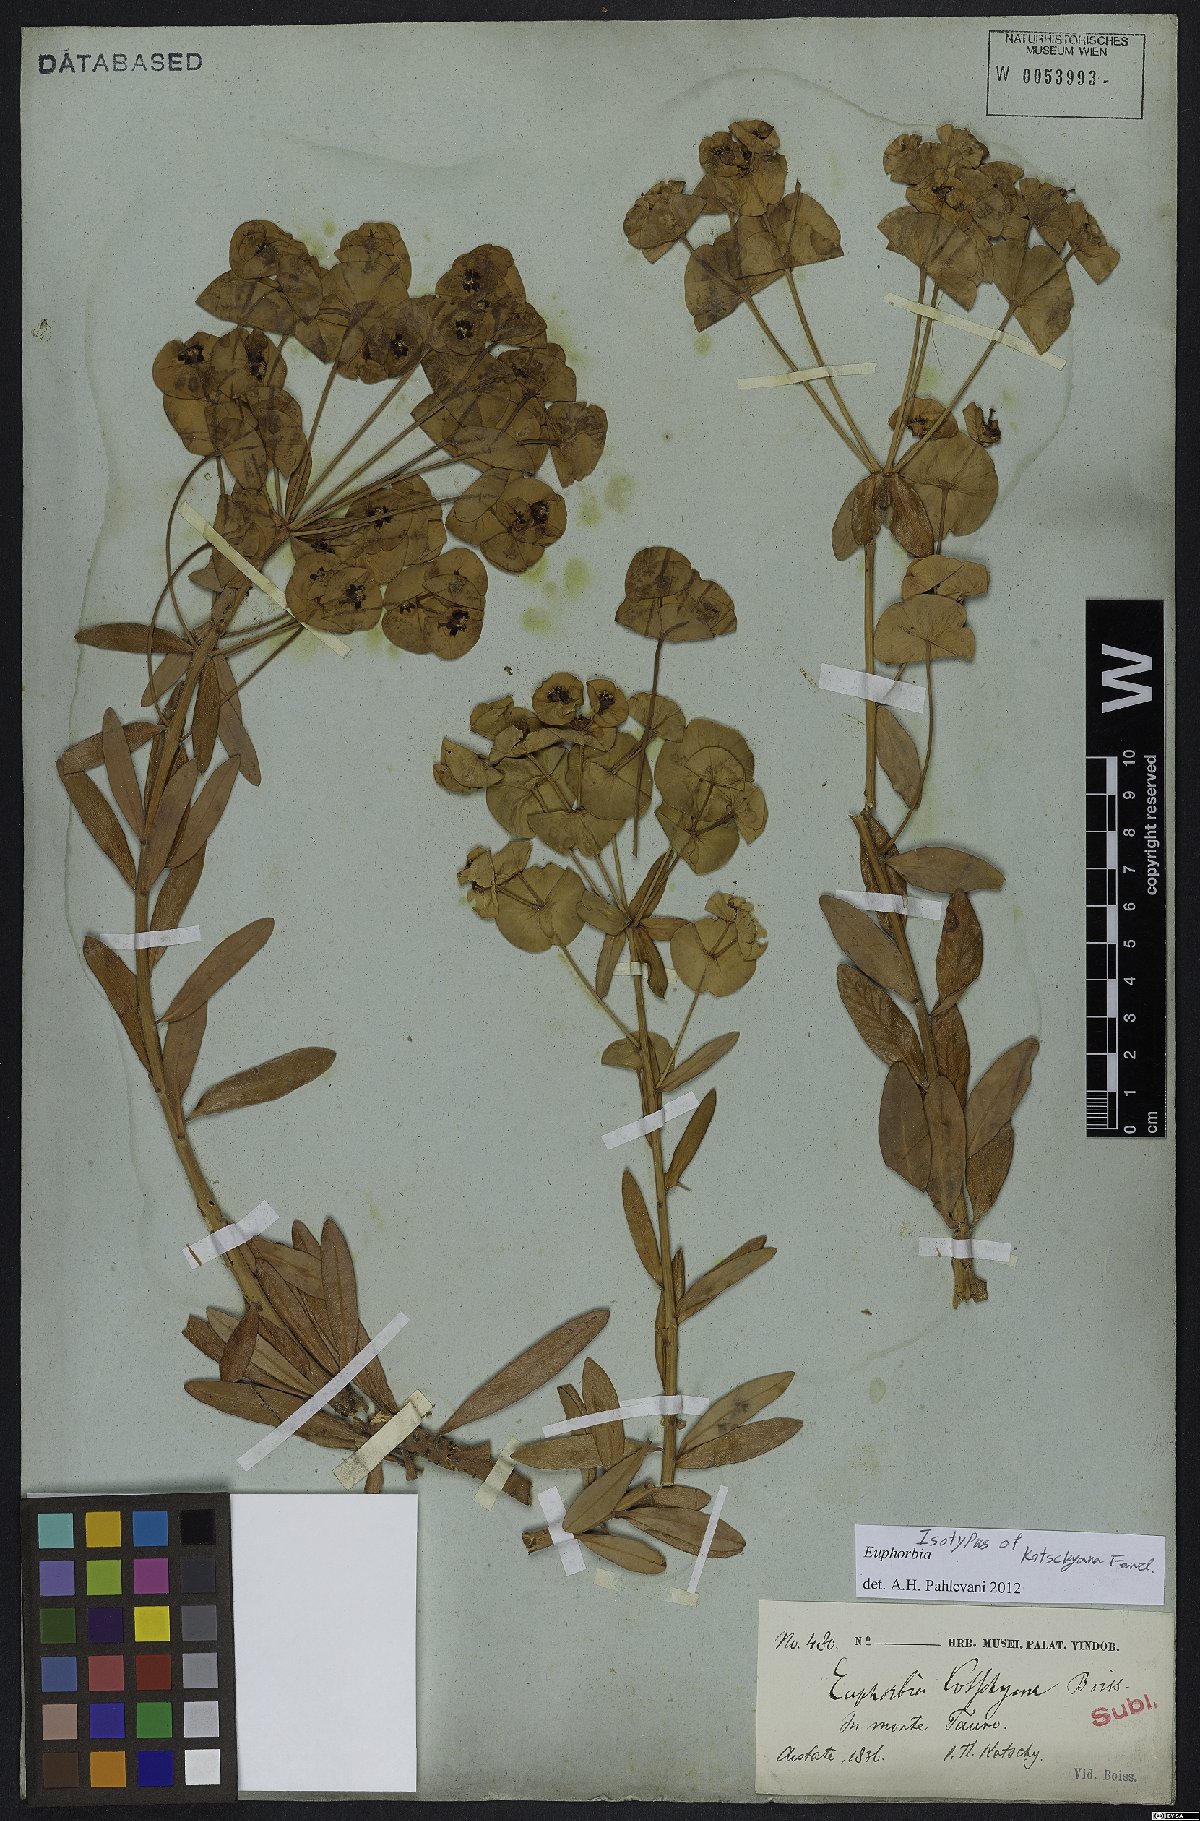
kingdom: Plantae
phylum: Tracheophyta
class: Magnoliopsida
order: Malpighiales
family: Euphorbiaceae
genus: Euphorbia
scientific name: Euphorbia kotschyana
